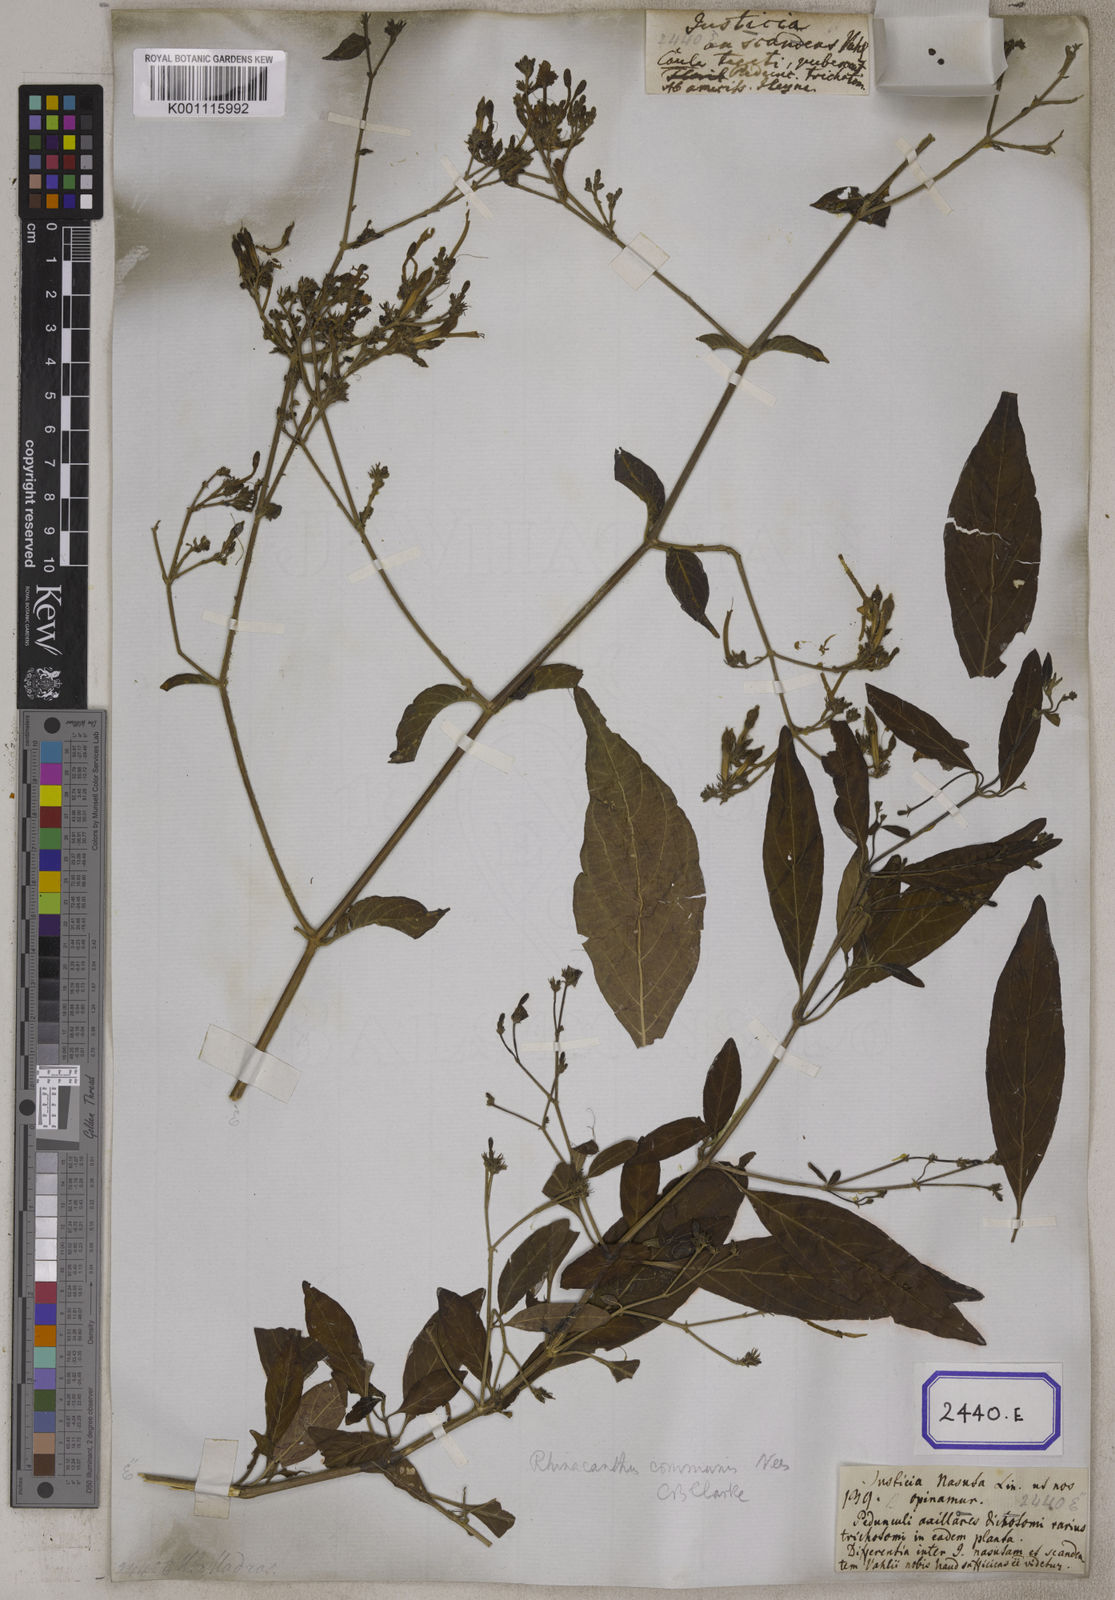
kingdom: Plantae
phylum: Tracheophyta
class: Magnoliopsida
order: Lamiales
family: Acanthaceae
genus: Rhinacanthus
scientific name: Rhinacanthus nasutus
